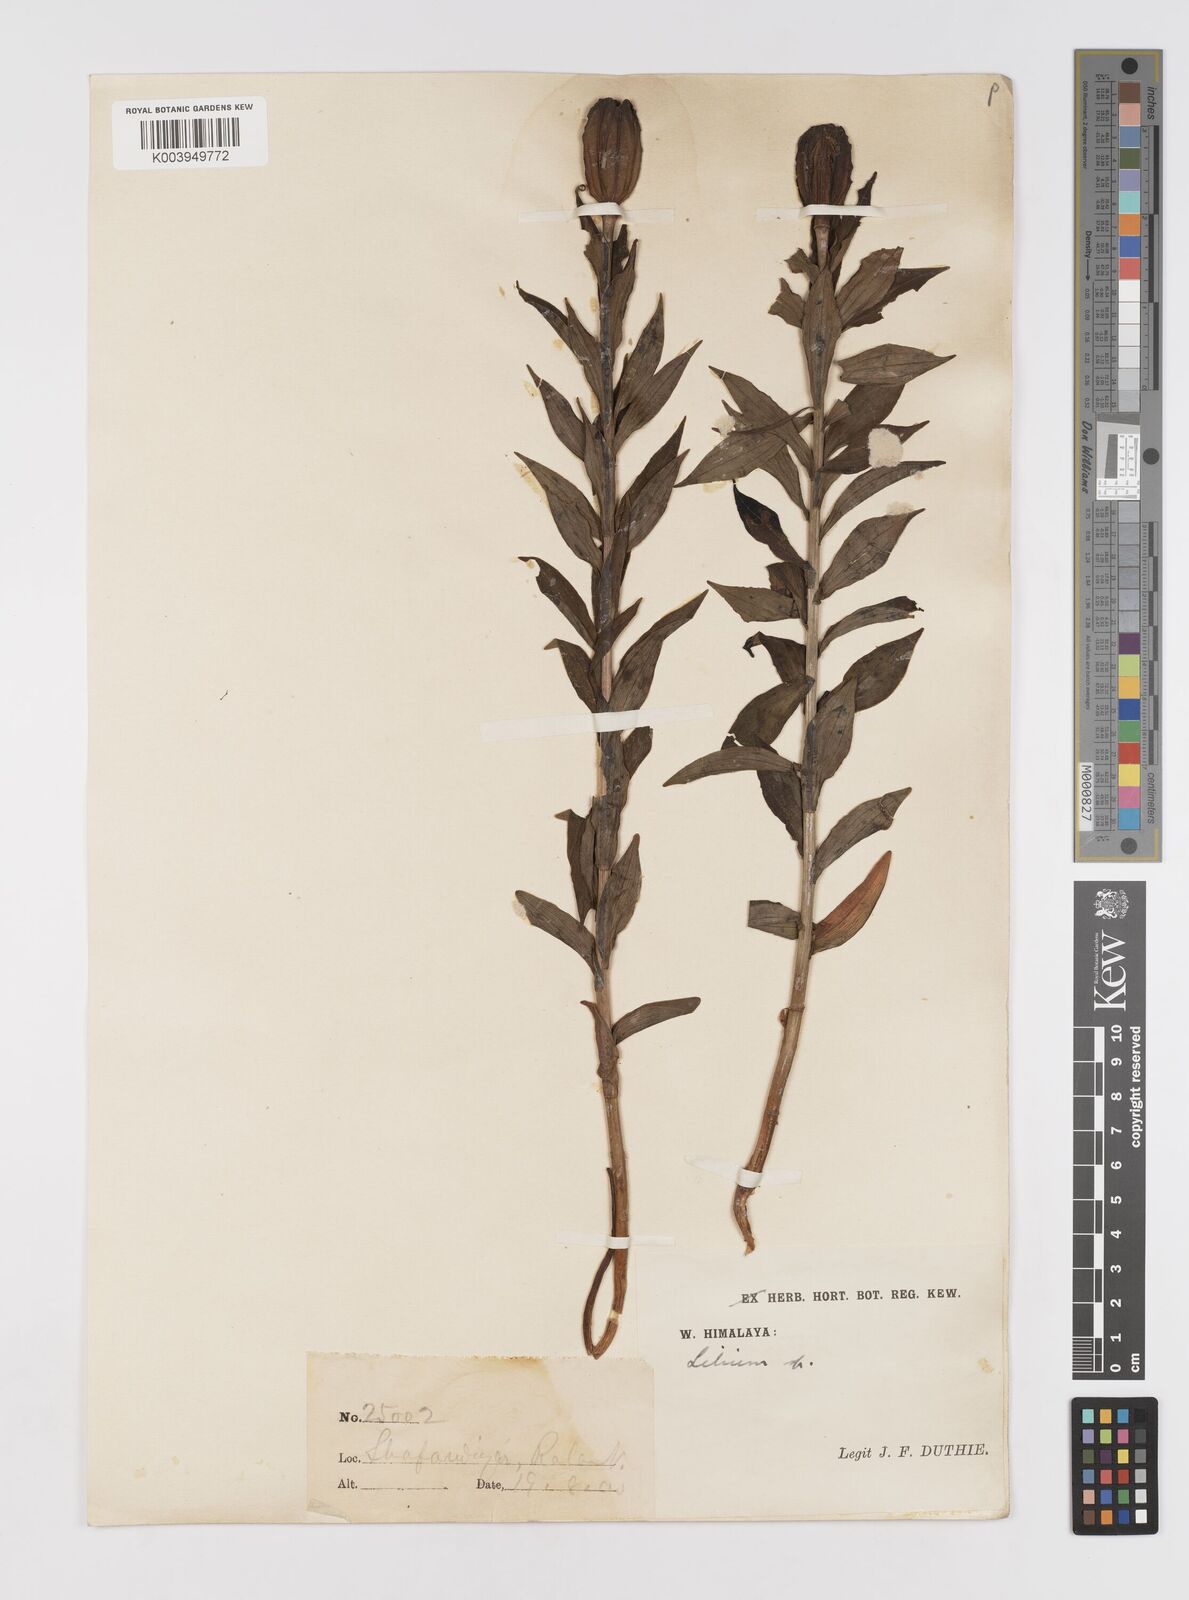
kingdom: Plantae
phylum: Tracheophyta
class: Liliopsida
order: Liliales
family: Liliaceae
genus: Lilium
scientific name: Lilium oxypetalum
